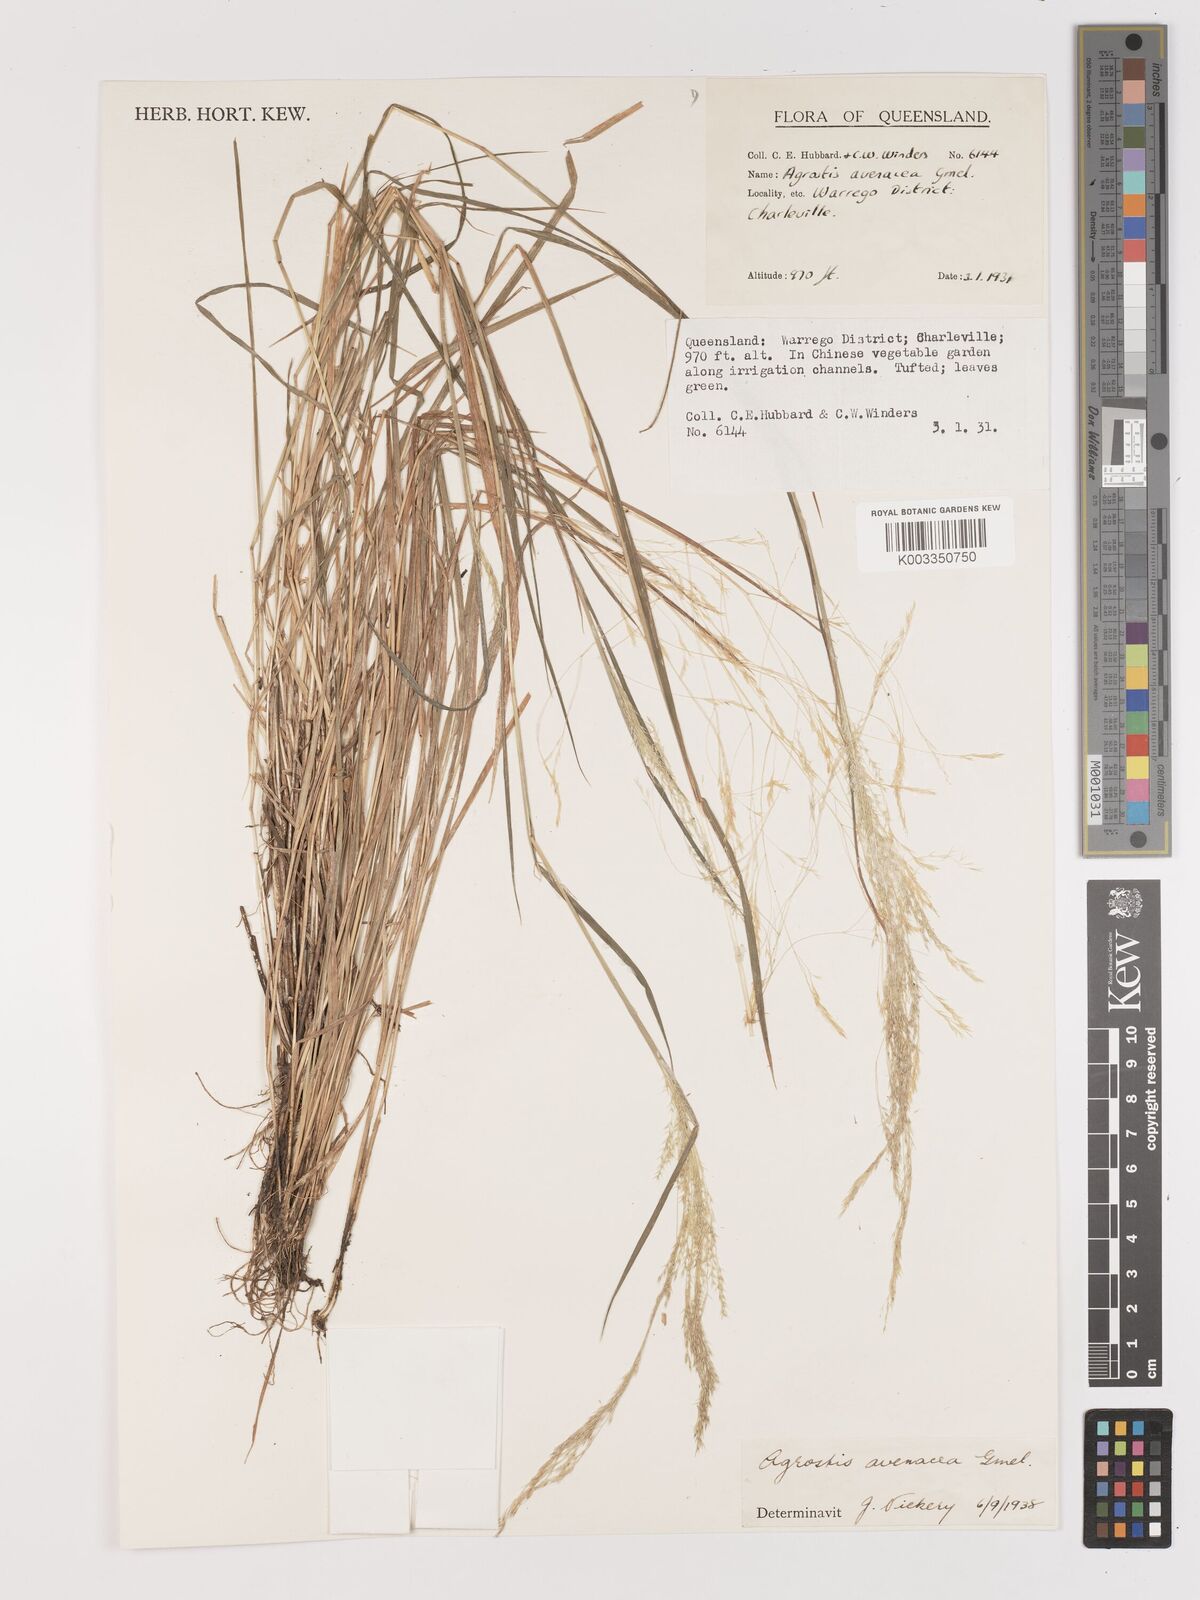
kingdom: Plantae
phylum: Tracheophyta
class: Liliopsida
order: Poales
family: Poaceae
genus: Lachnagrostis
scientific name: Lachnagrostis filiformis
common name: Bentgrass
